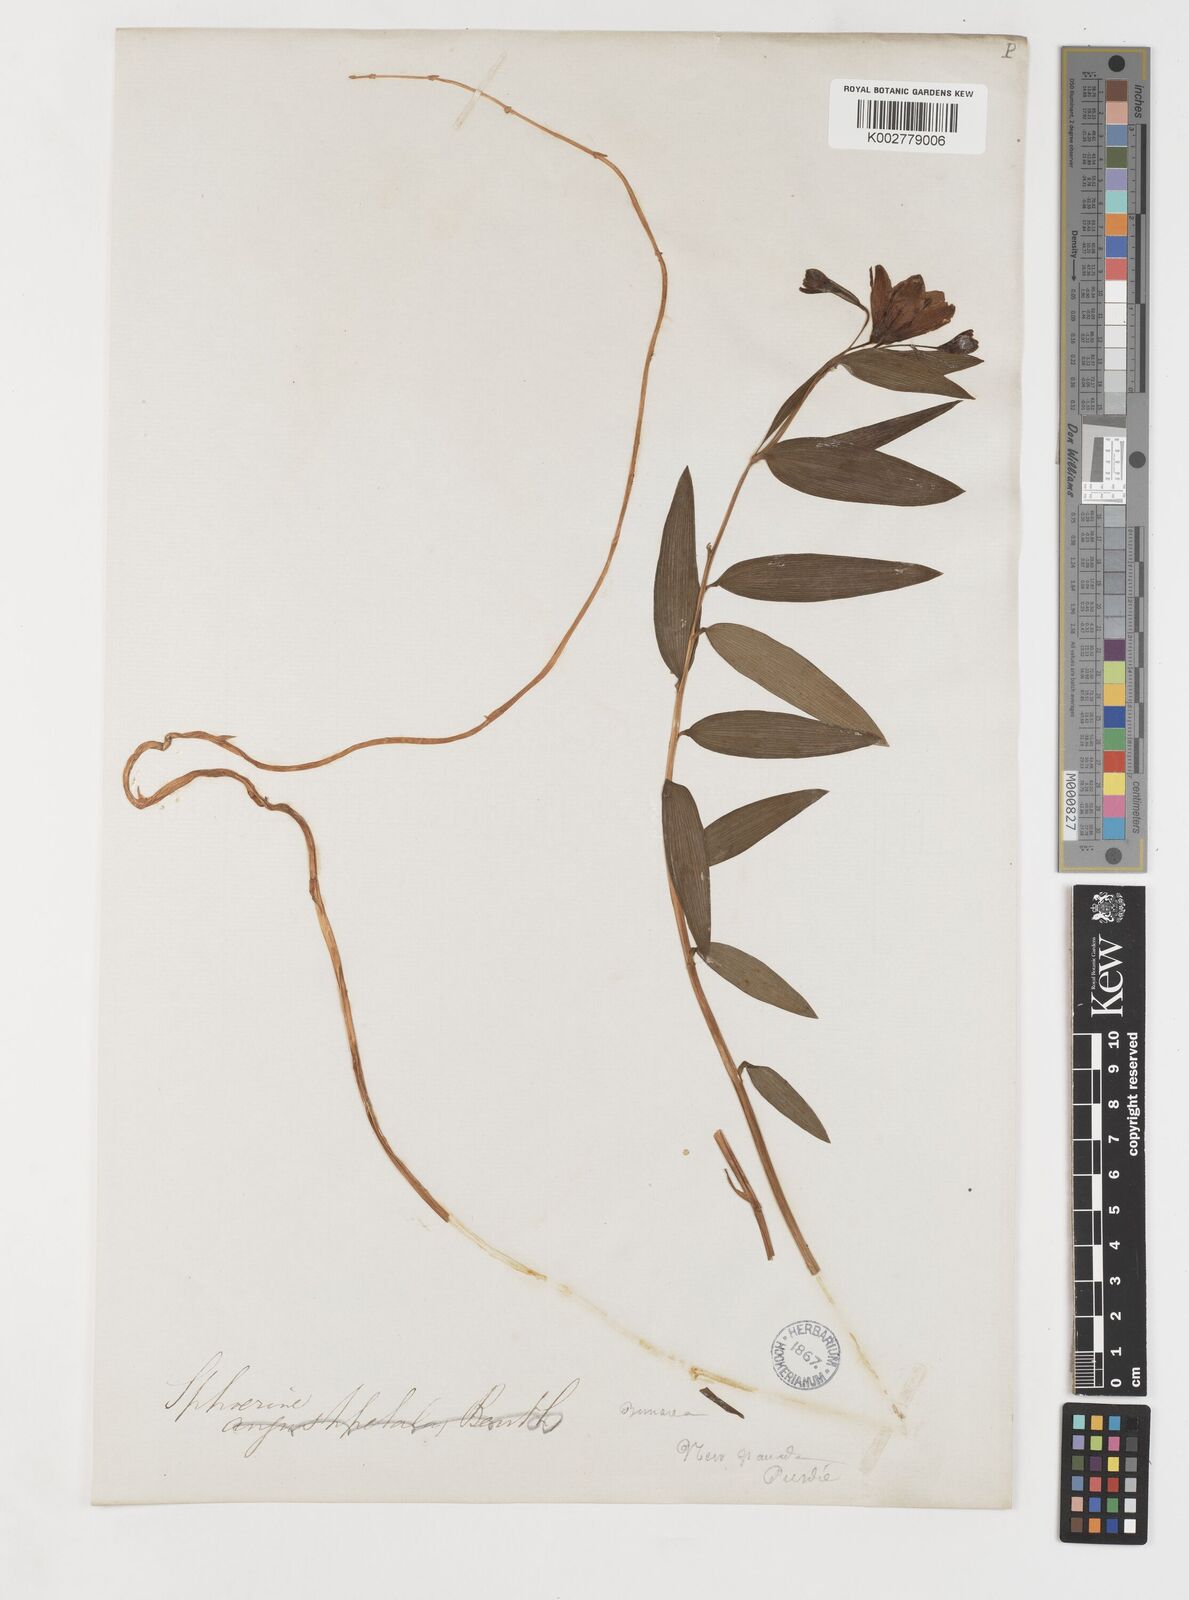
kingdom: Plantae
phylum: Tracheophyta
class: Liliopsida
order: Liliales
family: Alstroemeriaceae
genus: Bomarea
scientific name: Bomarea pauciflora
